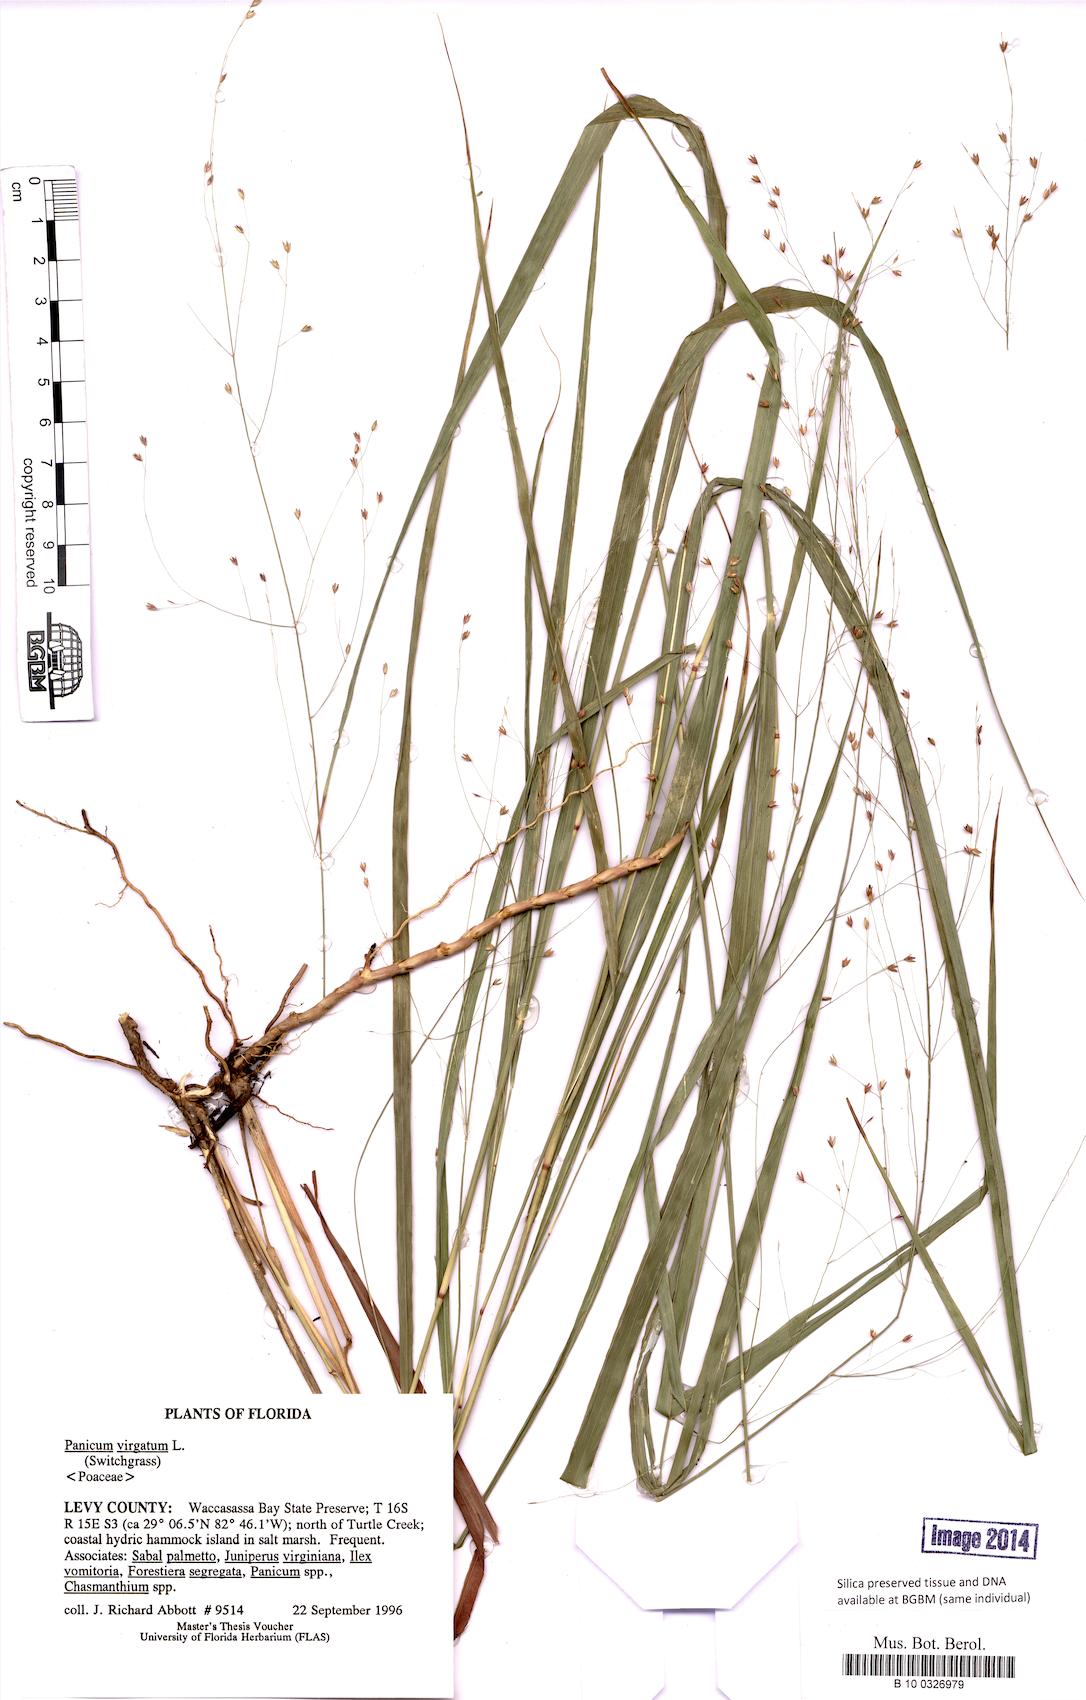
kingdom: Plantae
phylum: Tracheophyta
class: Liliopsida
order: Poales
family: Poaceae
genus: Panicum
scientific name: Panicum virgatum
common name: Switchgrass
